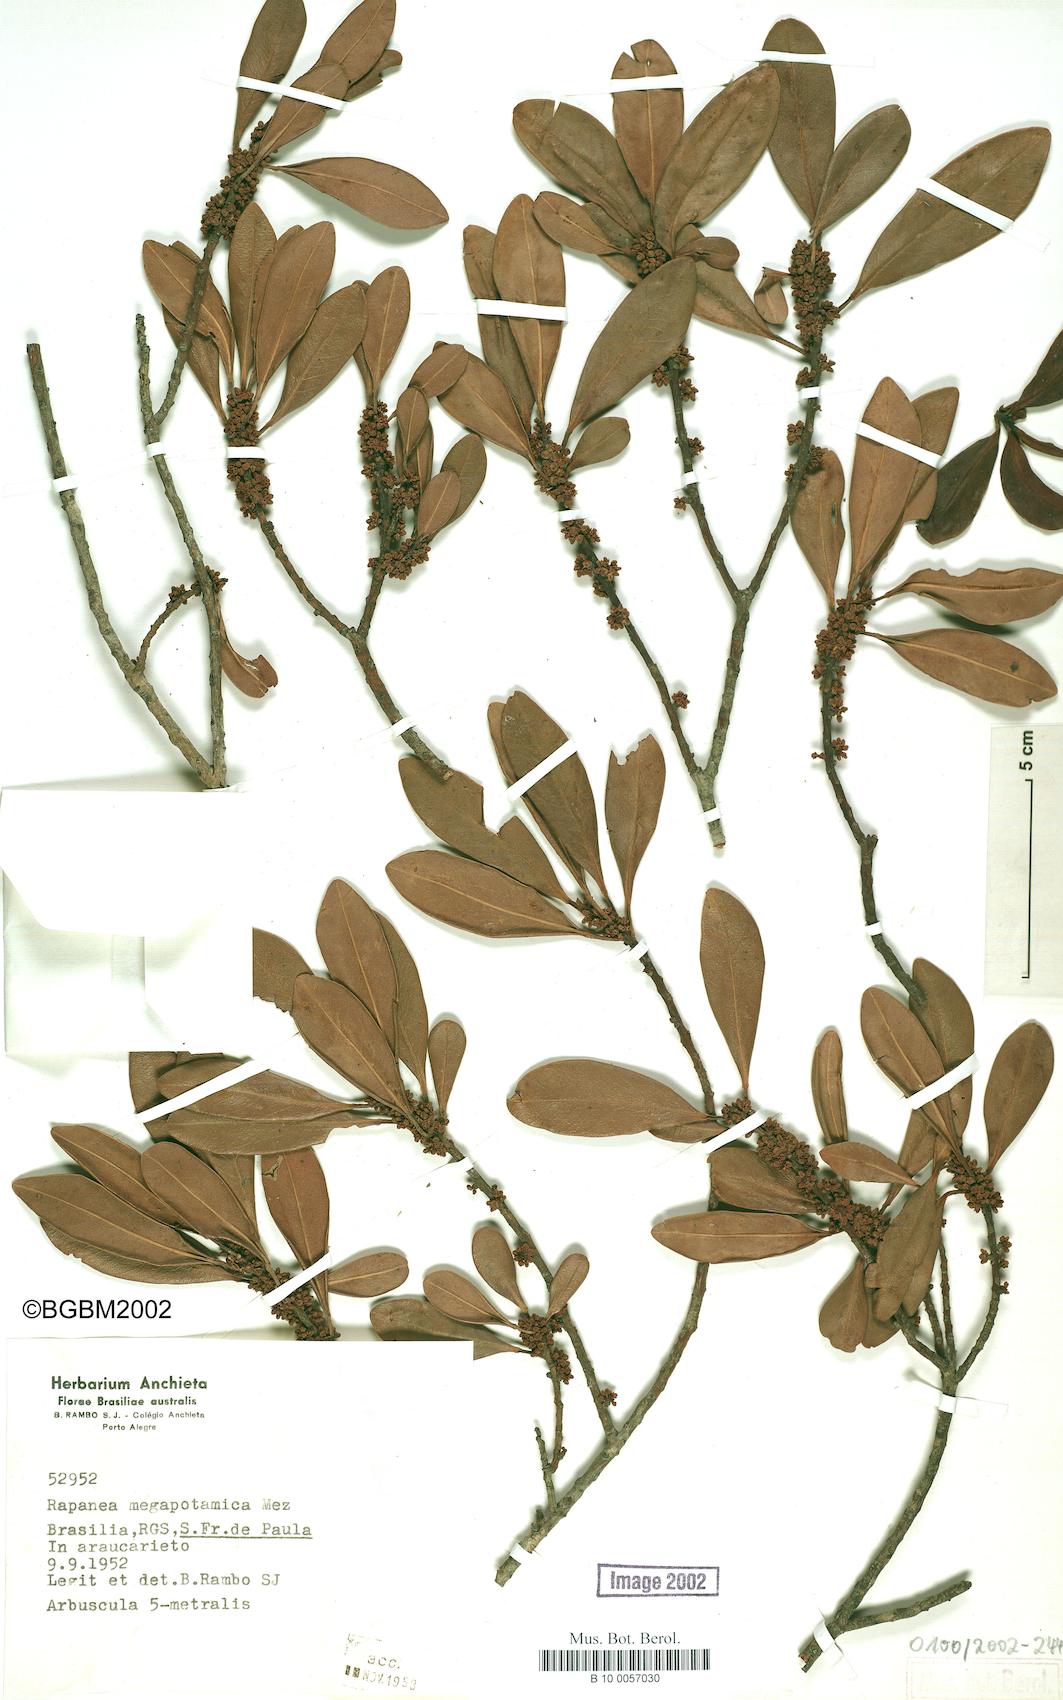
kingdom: Plantae
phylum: Tracheophyta
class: Magnoliopsida
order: Ericales
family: Primulaceae
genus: Myrsine
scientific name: Myrsine lorentziana
